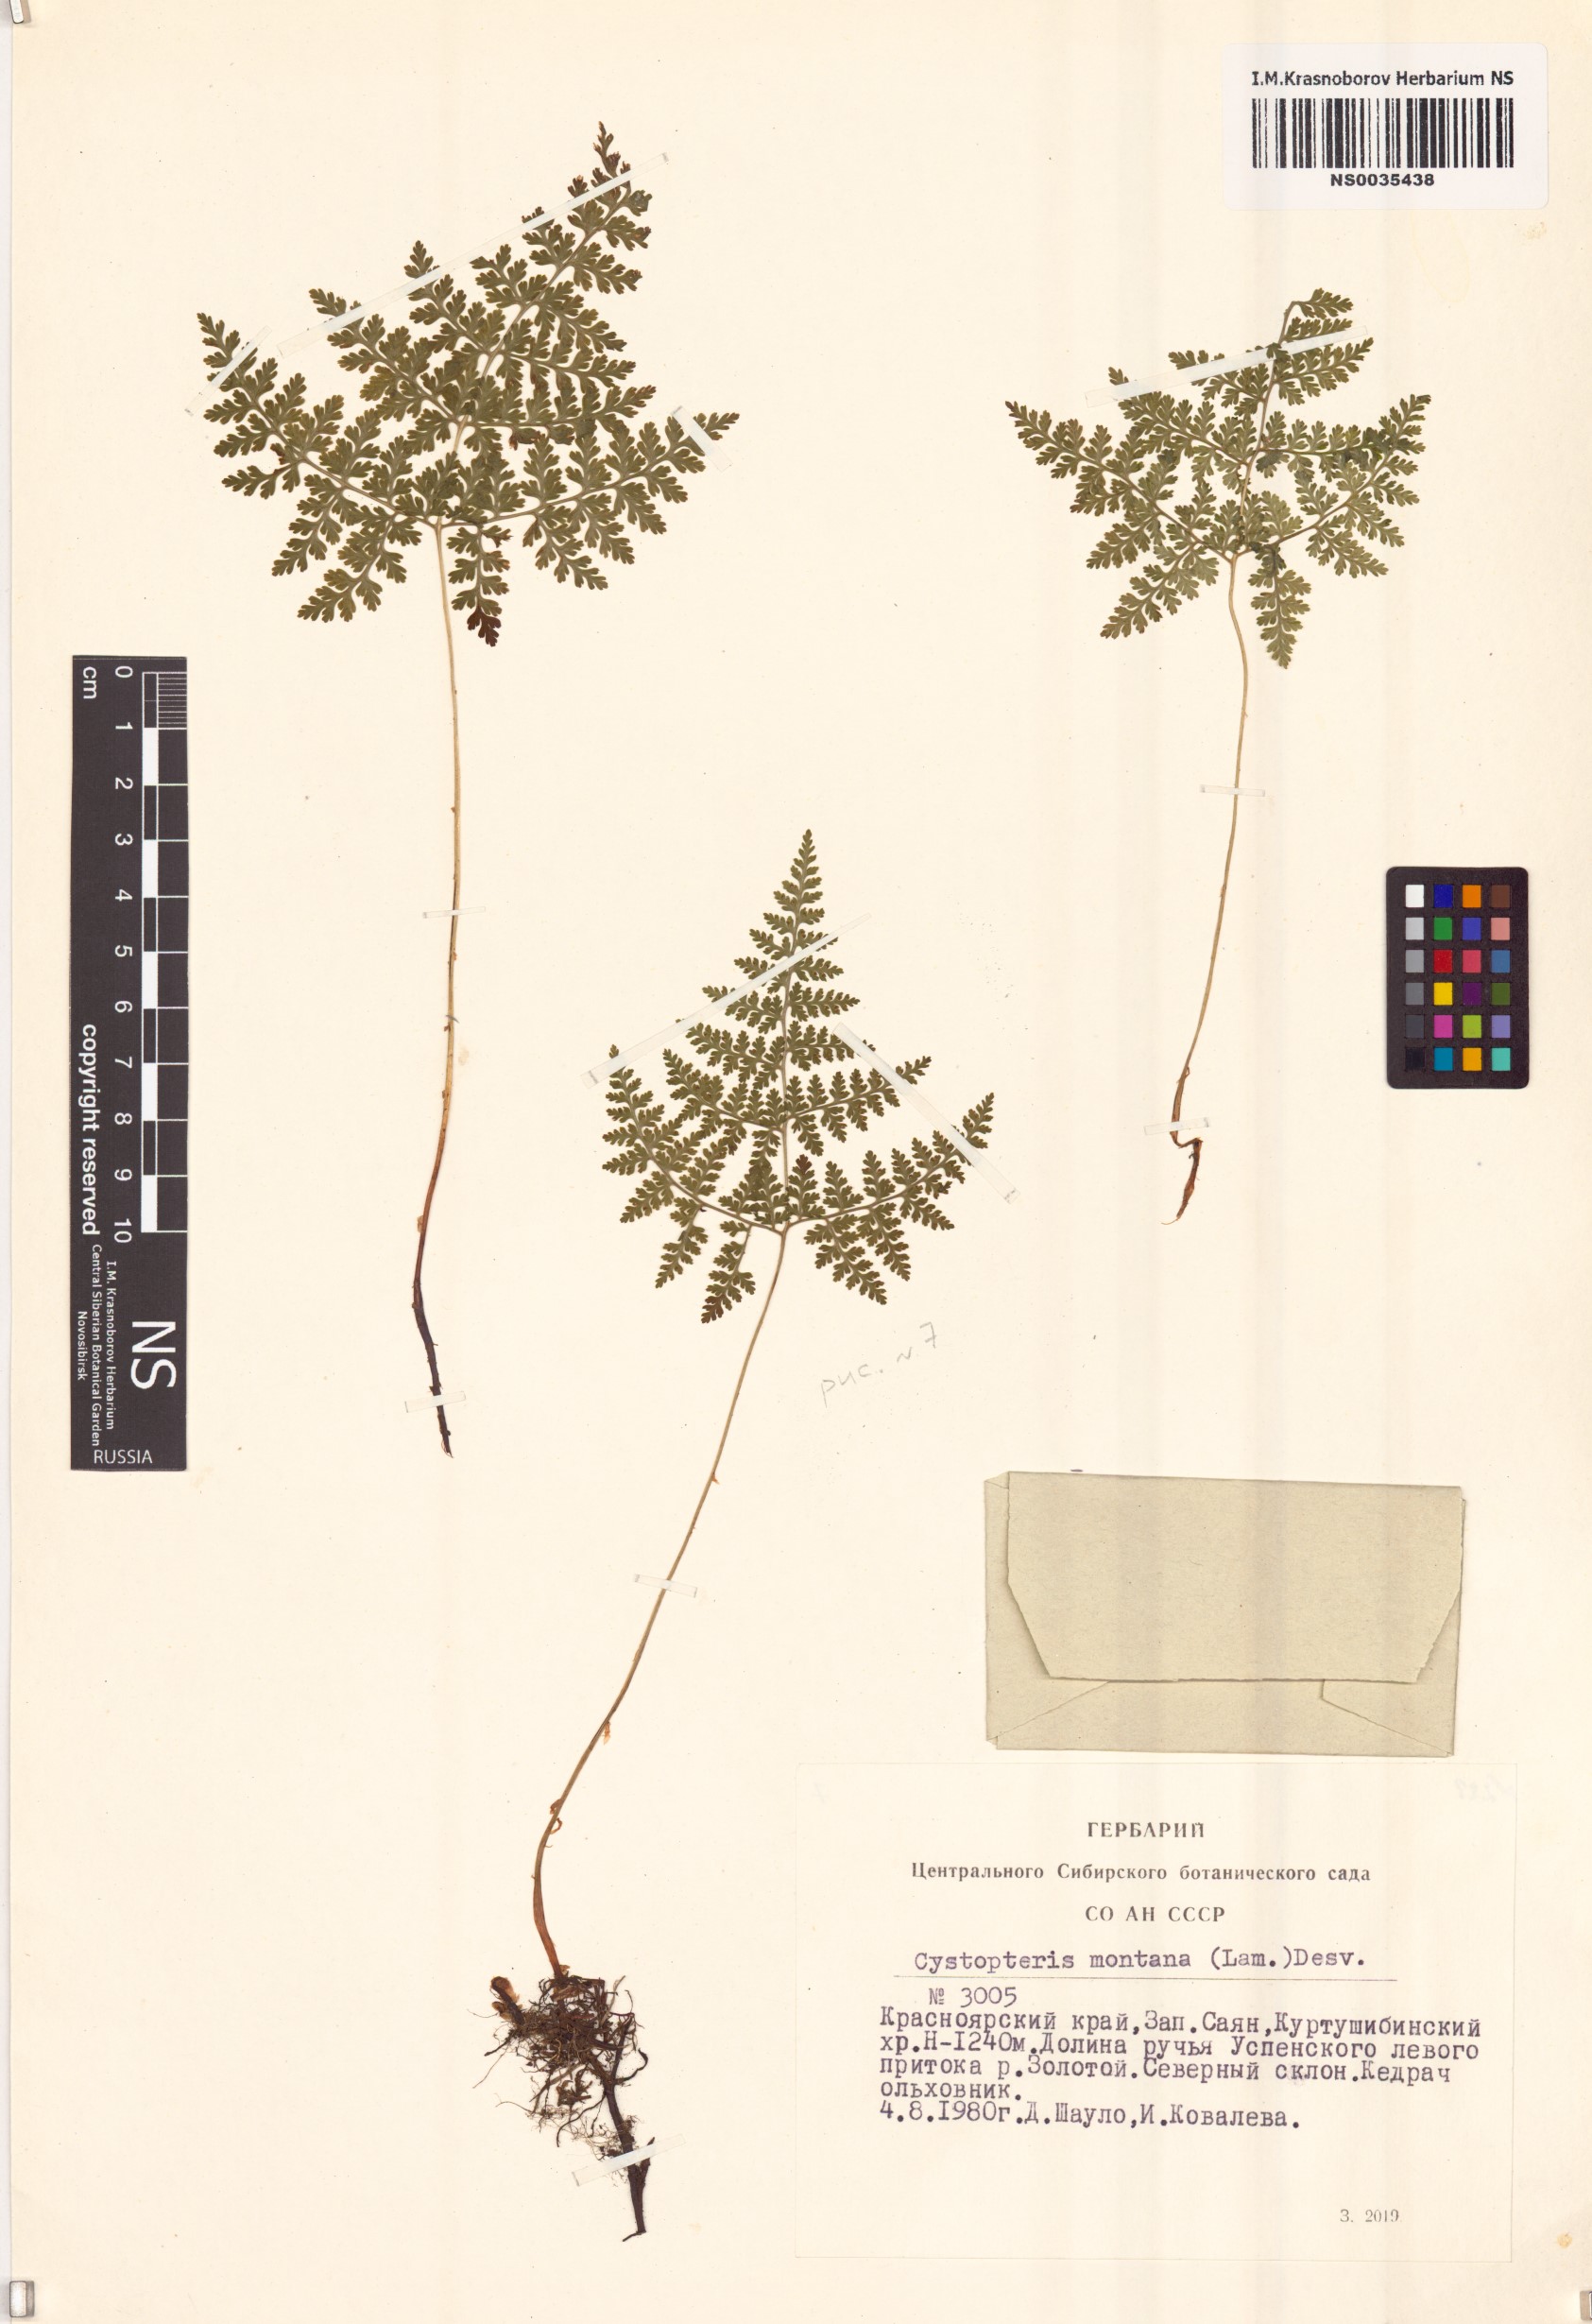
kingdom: Plantae
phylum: Tracheophyta
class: Polypodiopsida
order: Polypodiales
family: Cystopteridaceae
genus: Cystopteris
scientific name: Cystopteris montana
